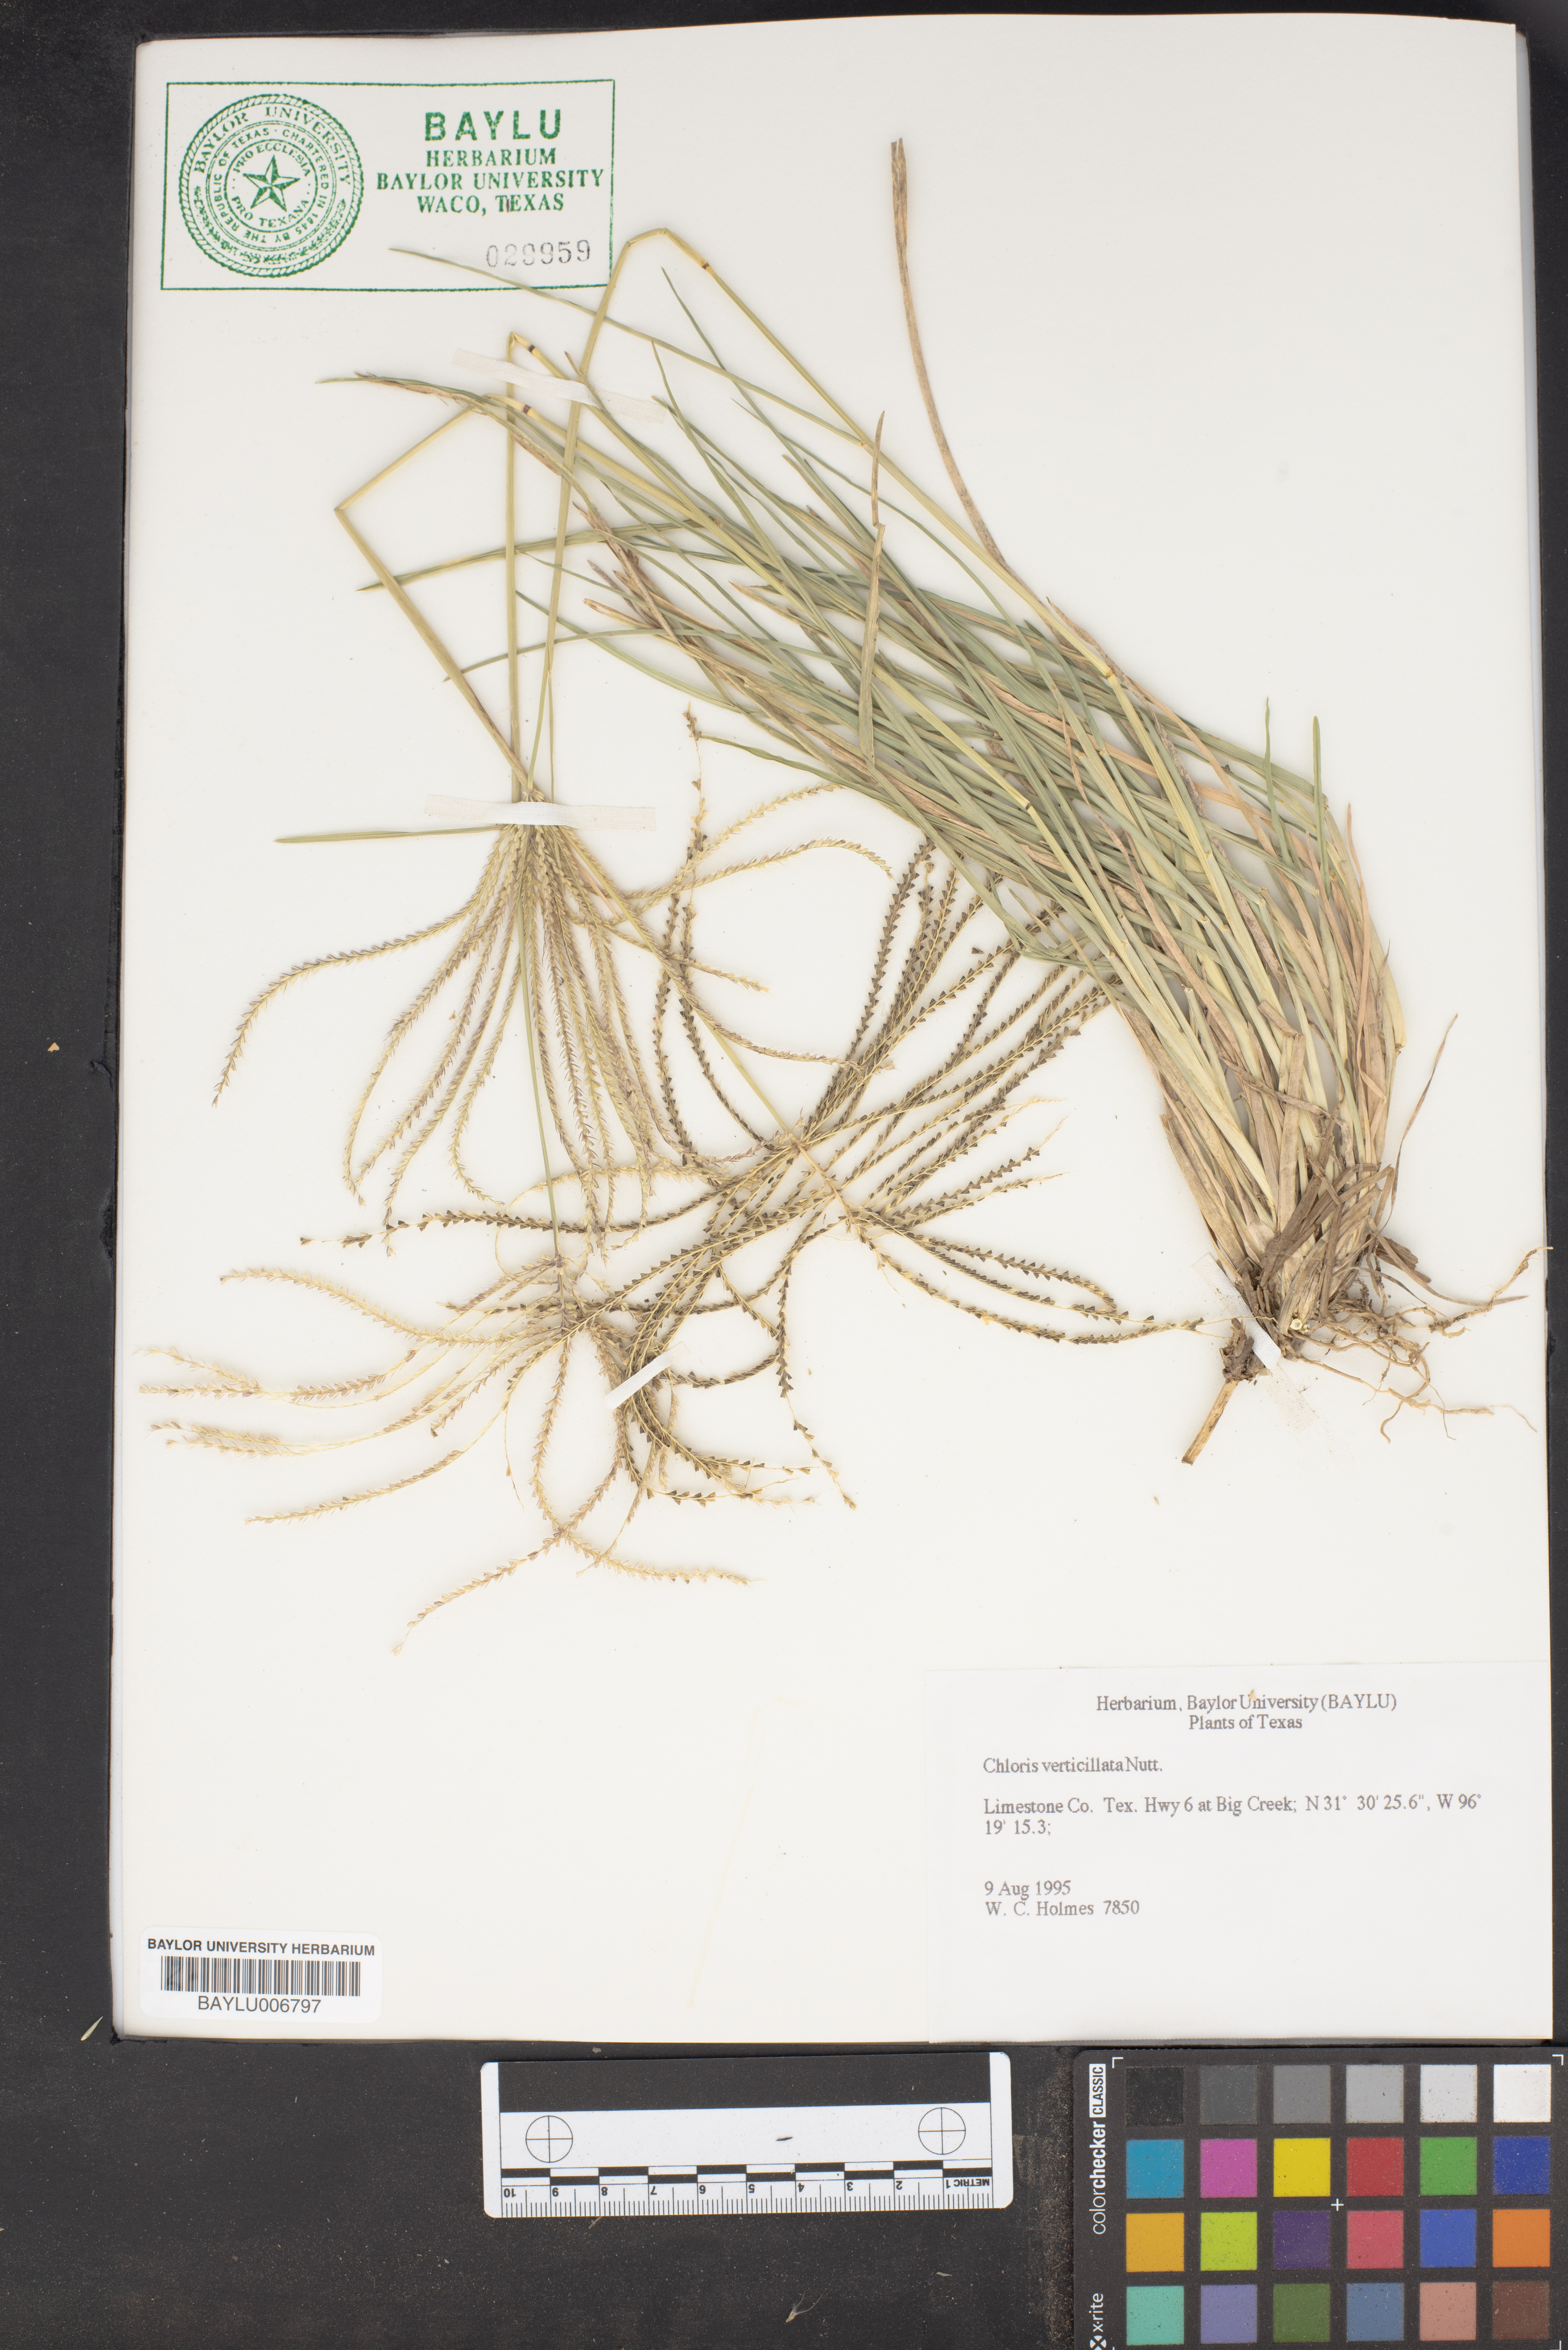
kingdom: Plantae
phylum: Tracheophyta
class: Liliopsida
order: Poales
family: Poaceae
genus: Chloris
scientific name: Chloris verticillata
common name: Tumble windmill grass
